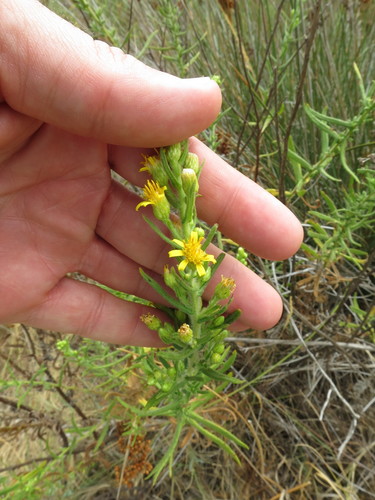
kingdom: Plantae
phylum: Tracheophyta
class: Magnoliopsida
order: Asterales
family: Asteraceae
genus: Dittrichia
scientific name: Dittrichia viscosa
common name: Woody fleabane
